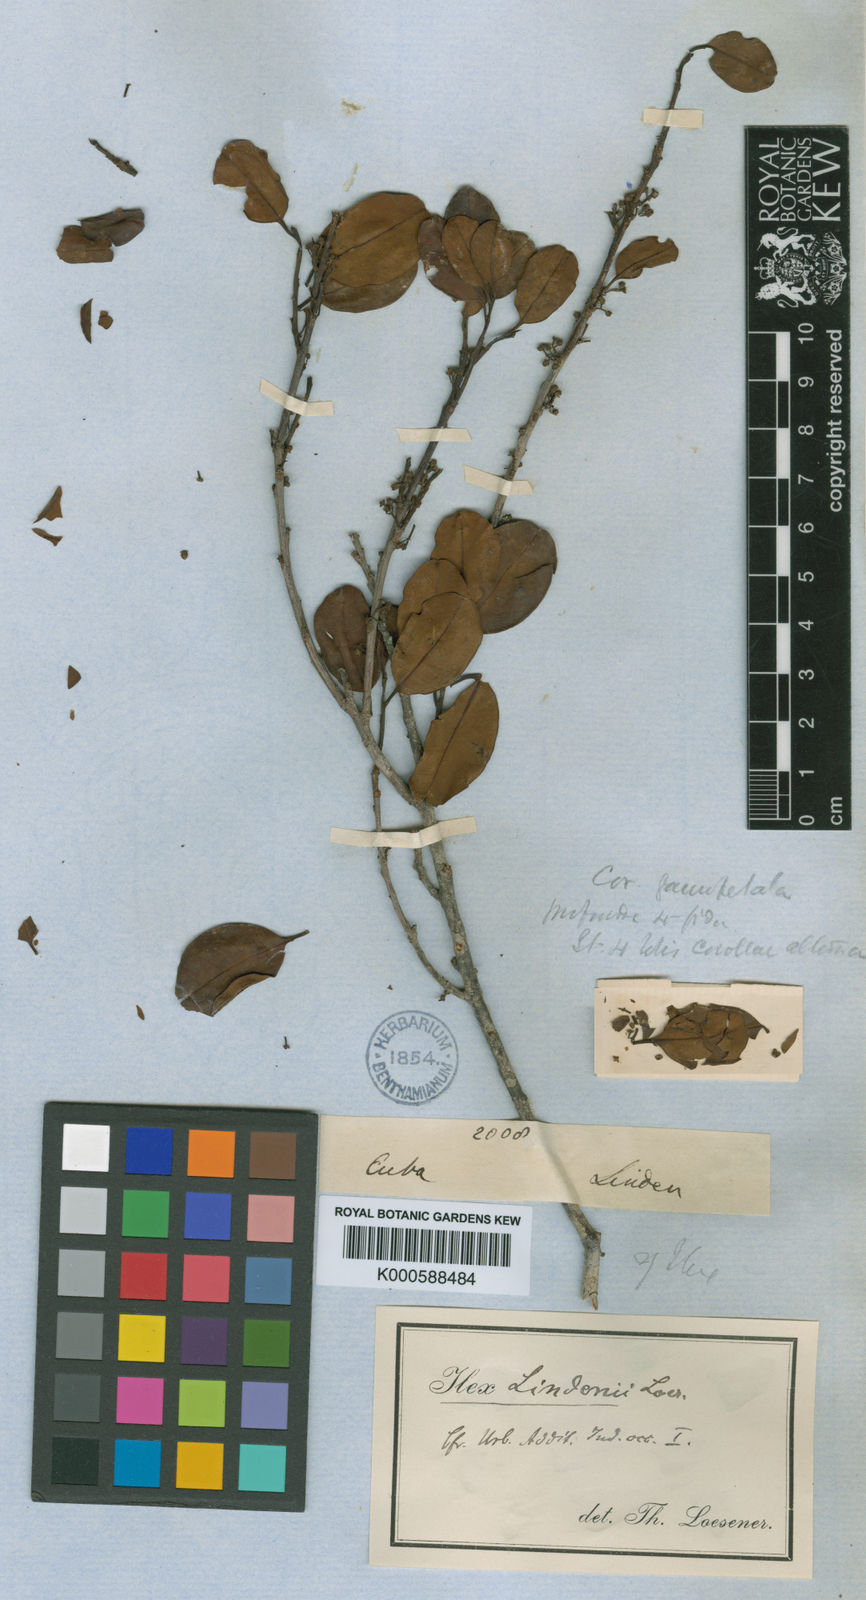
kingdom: Plantae
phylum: Tracheophyta
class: Magnoliopsida
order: Aquifoliales
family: Aquifoliaceae
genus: Ilex
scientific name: Ilex cubana
